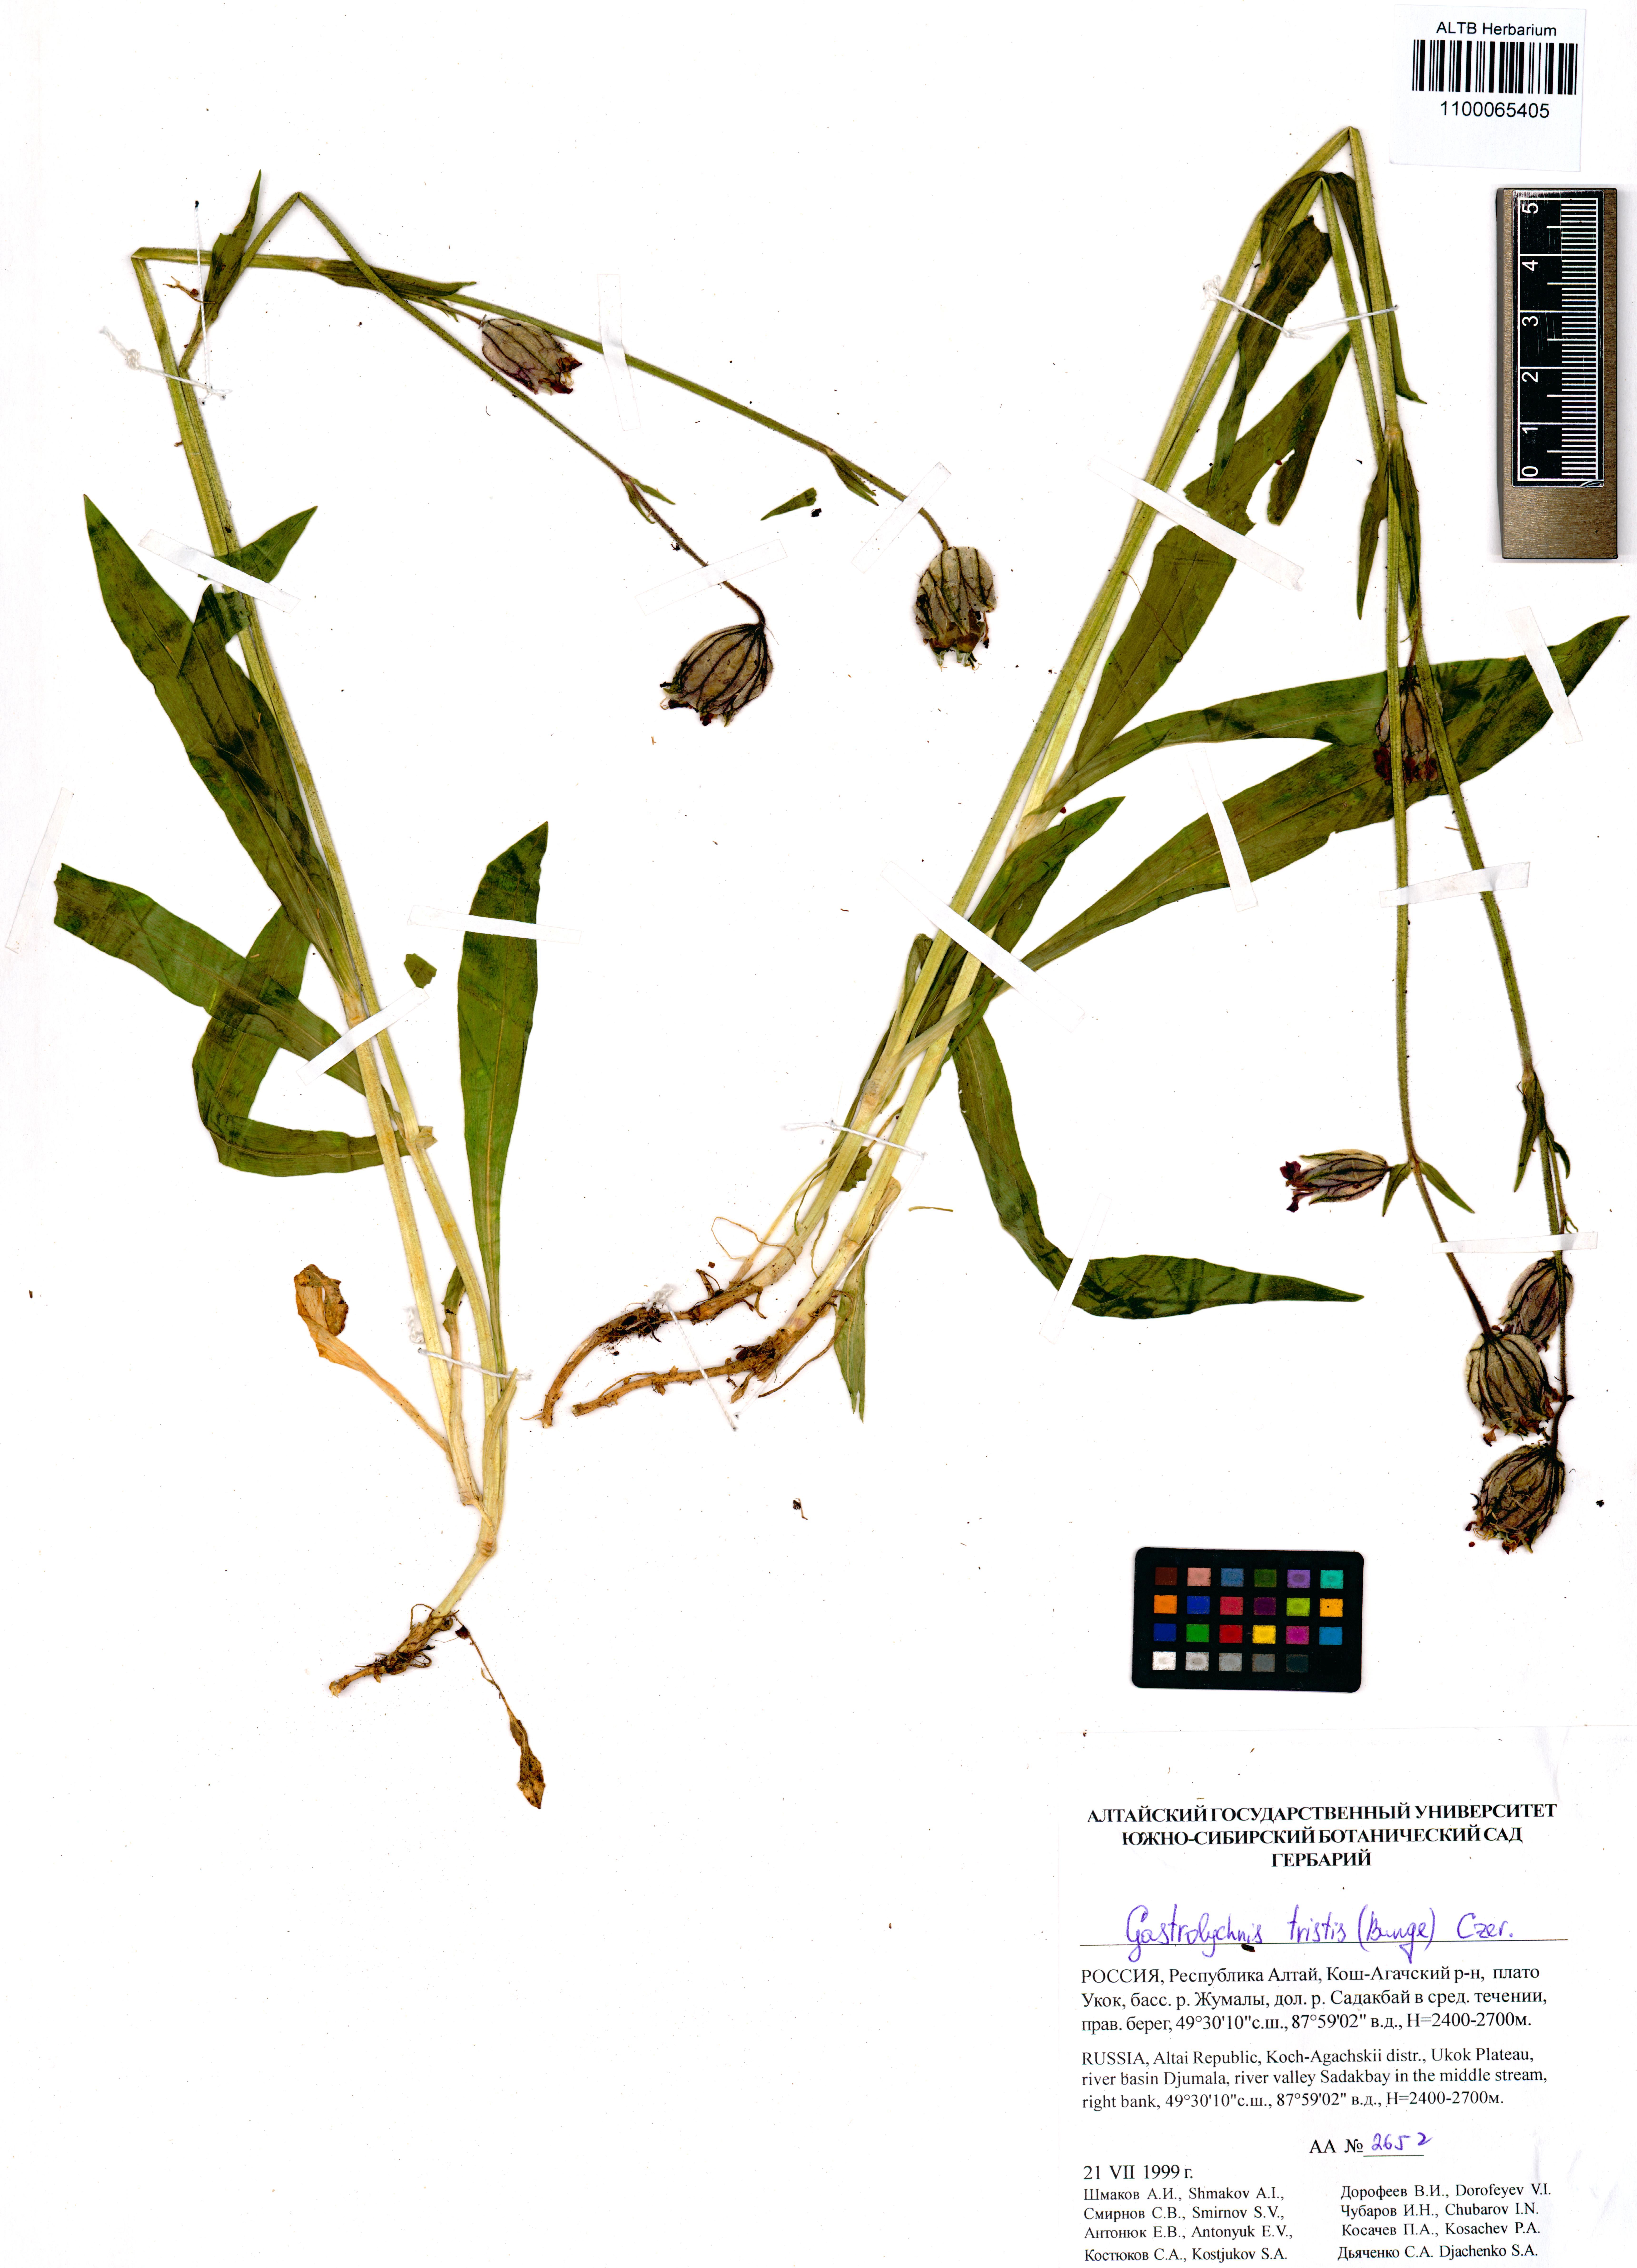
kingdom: Plantae
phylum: Tracheophyta
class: Magnoliopsida
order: Caryophyllales
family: Caryophyllaceae
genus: Silene
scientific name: Silene bungei
